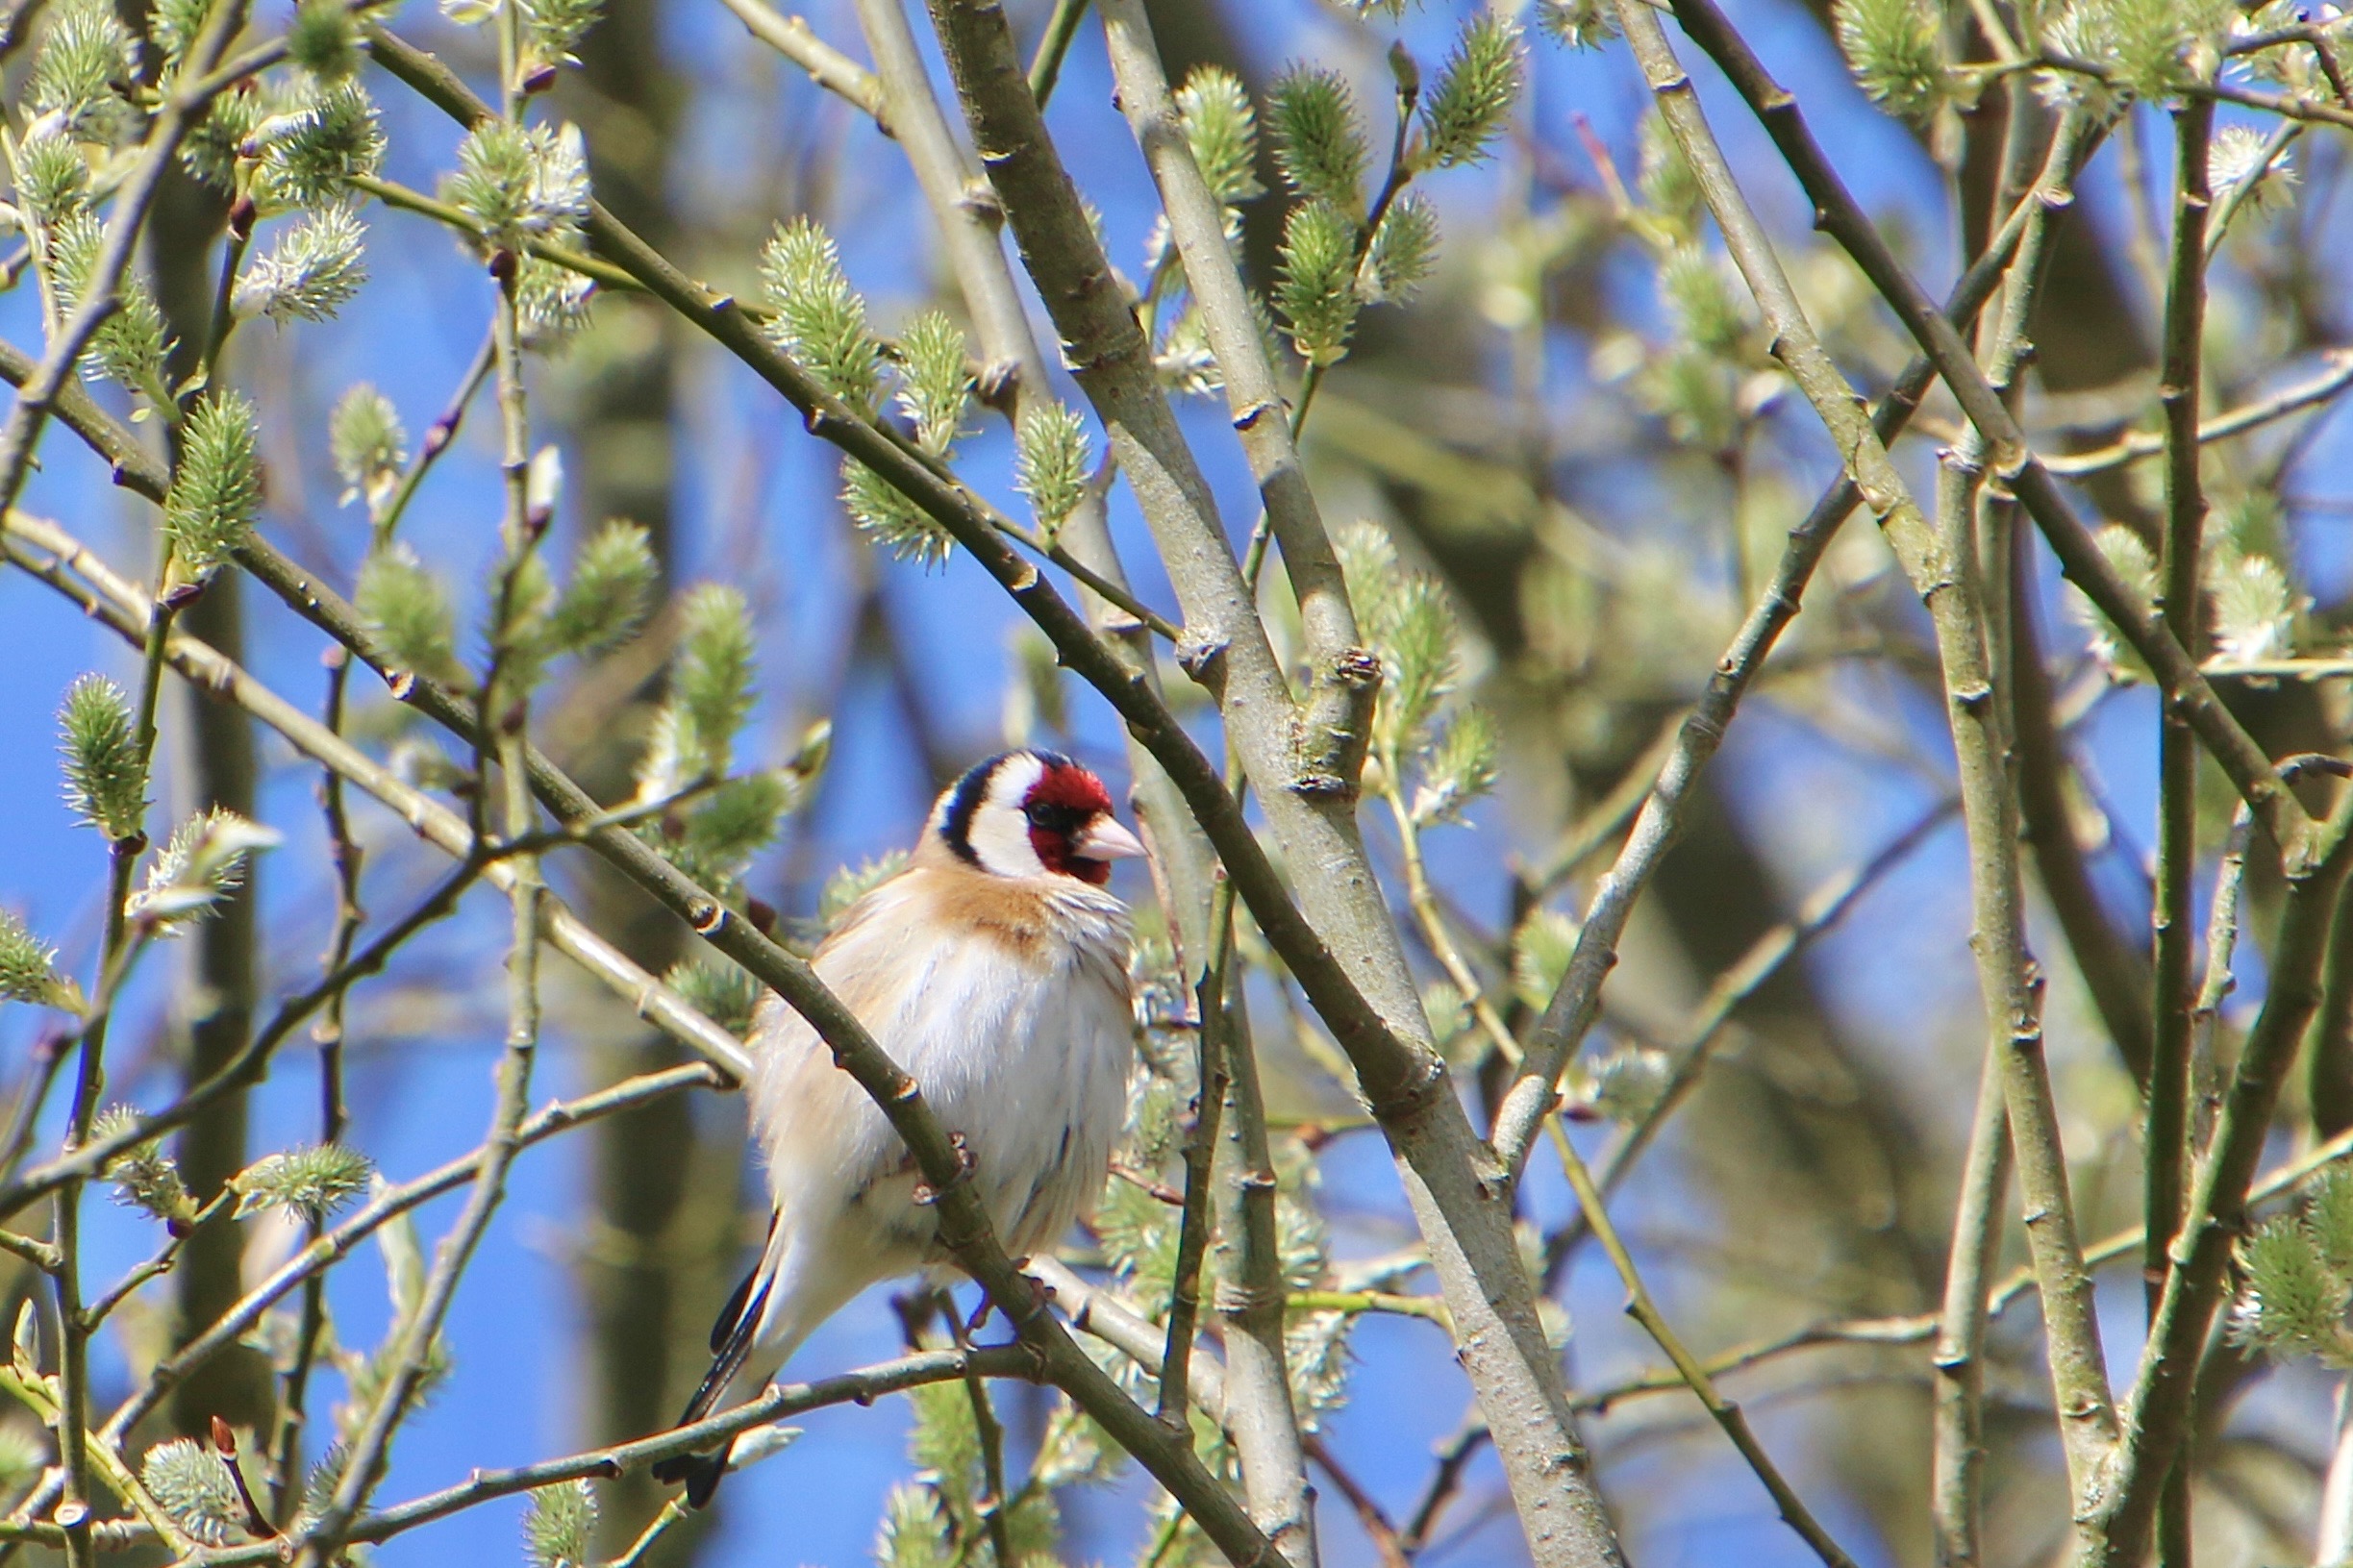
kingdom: Animalia
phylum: Chordata
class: Aves
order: Passeriformes
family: Fringillidae
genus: Carduelis
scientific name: Carduelis carduelis
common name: Stillits
